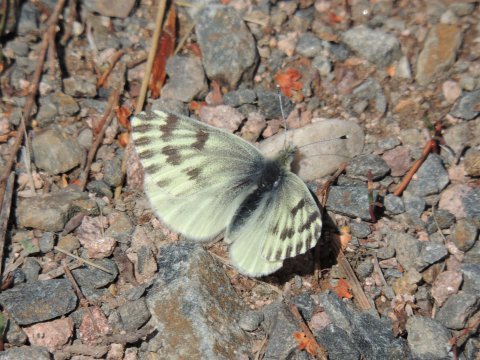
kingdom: Animalia
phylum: Arthropoda
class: Insecta
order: Lepidoptera
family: Pieridae
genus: Pontia
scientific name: Pontia sisymbrii
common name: Spring White
